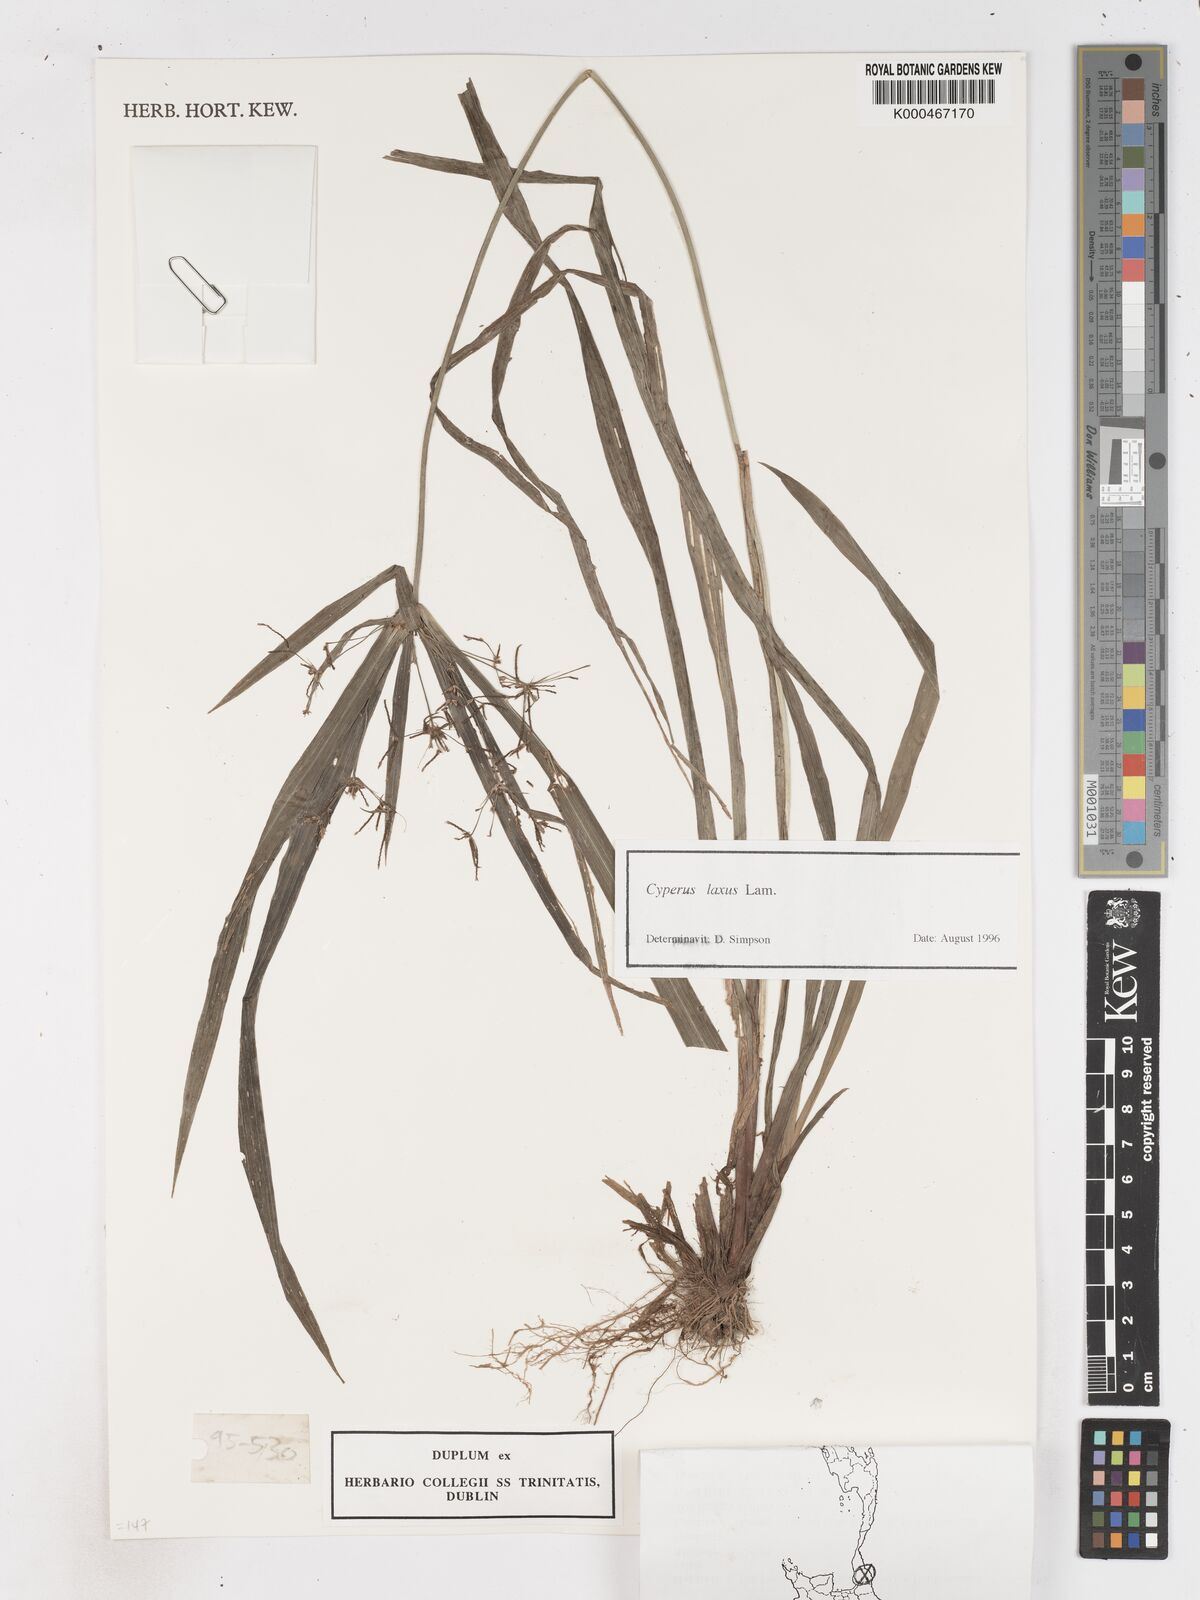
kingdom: Plantae
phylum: Tracheophyta
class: Liliopsida
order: Poales
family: Cyperaceae
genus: Cyperus
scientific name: Cyperus diffusus
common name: Dwarf umbrella grass
